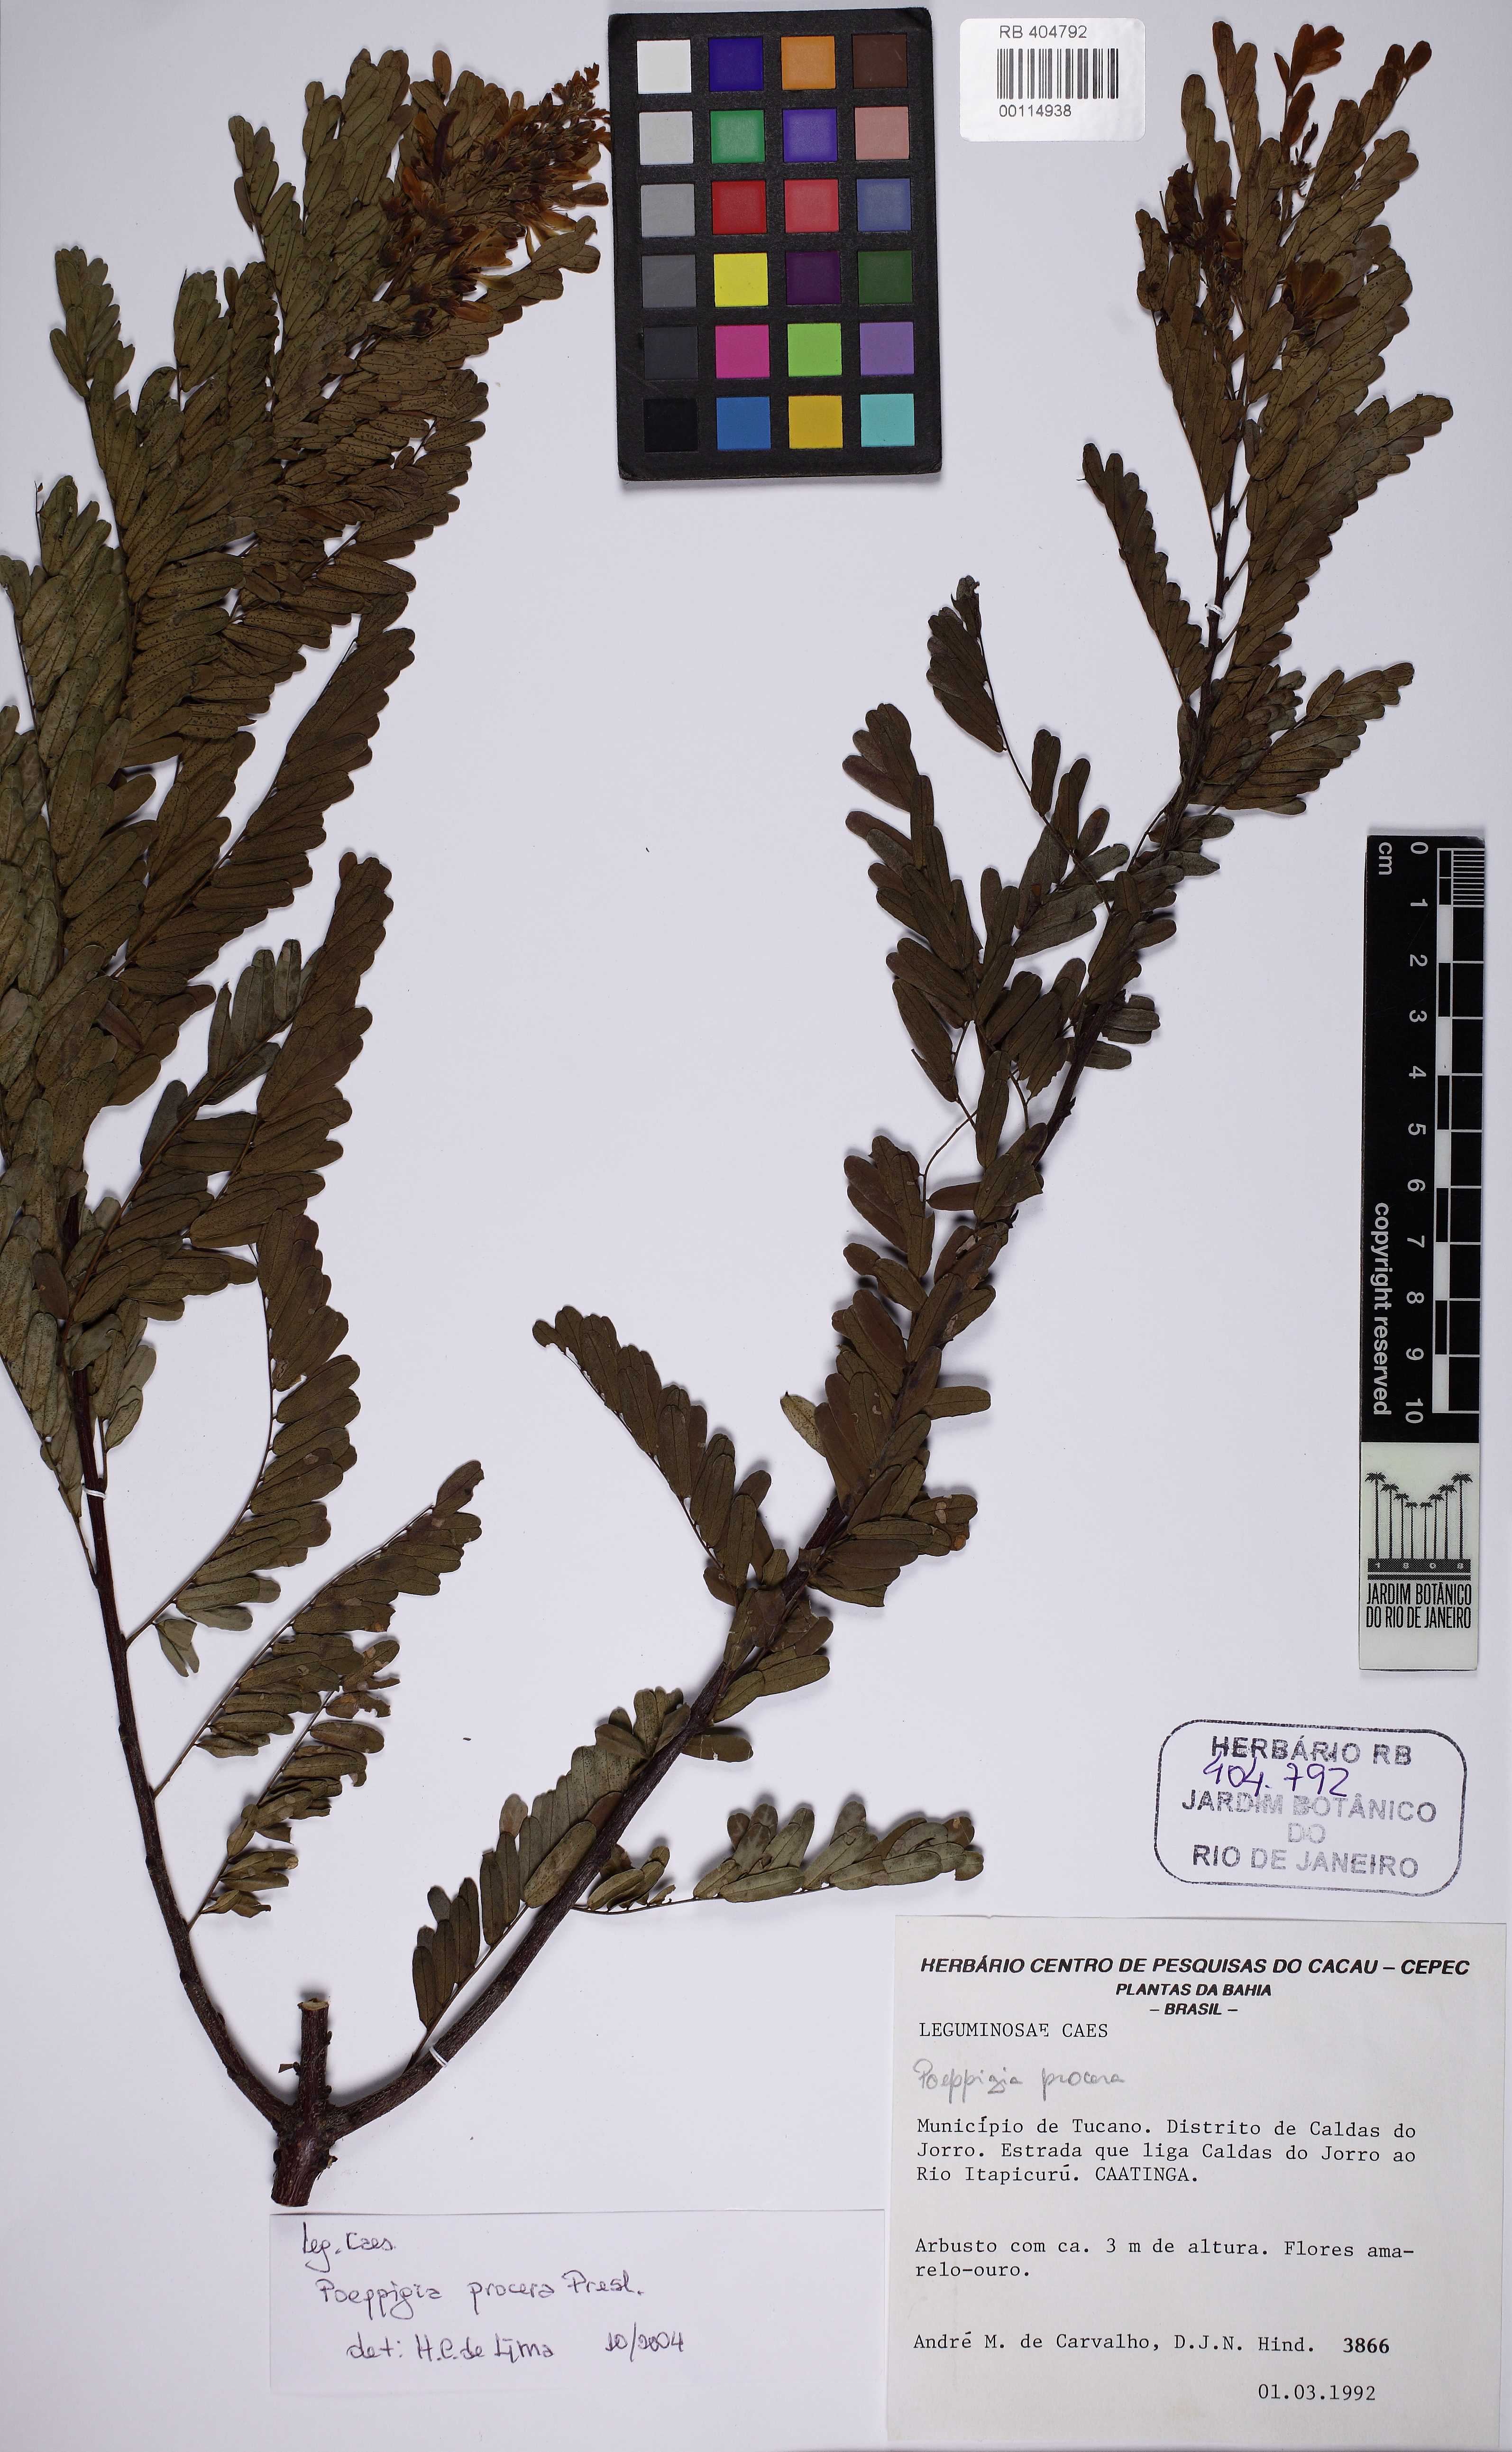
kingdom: Plantae
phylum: Tracheophyta
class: Magnoliopsida
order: Fabales
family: Fabaceae
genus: Poeppigia
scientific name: Poeppigia densiflora
